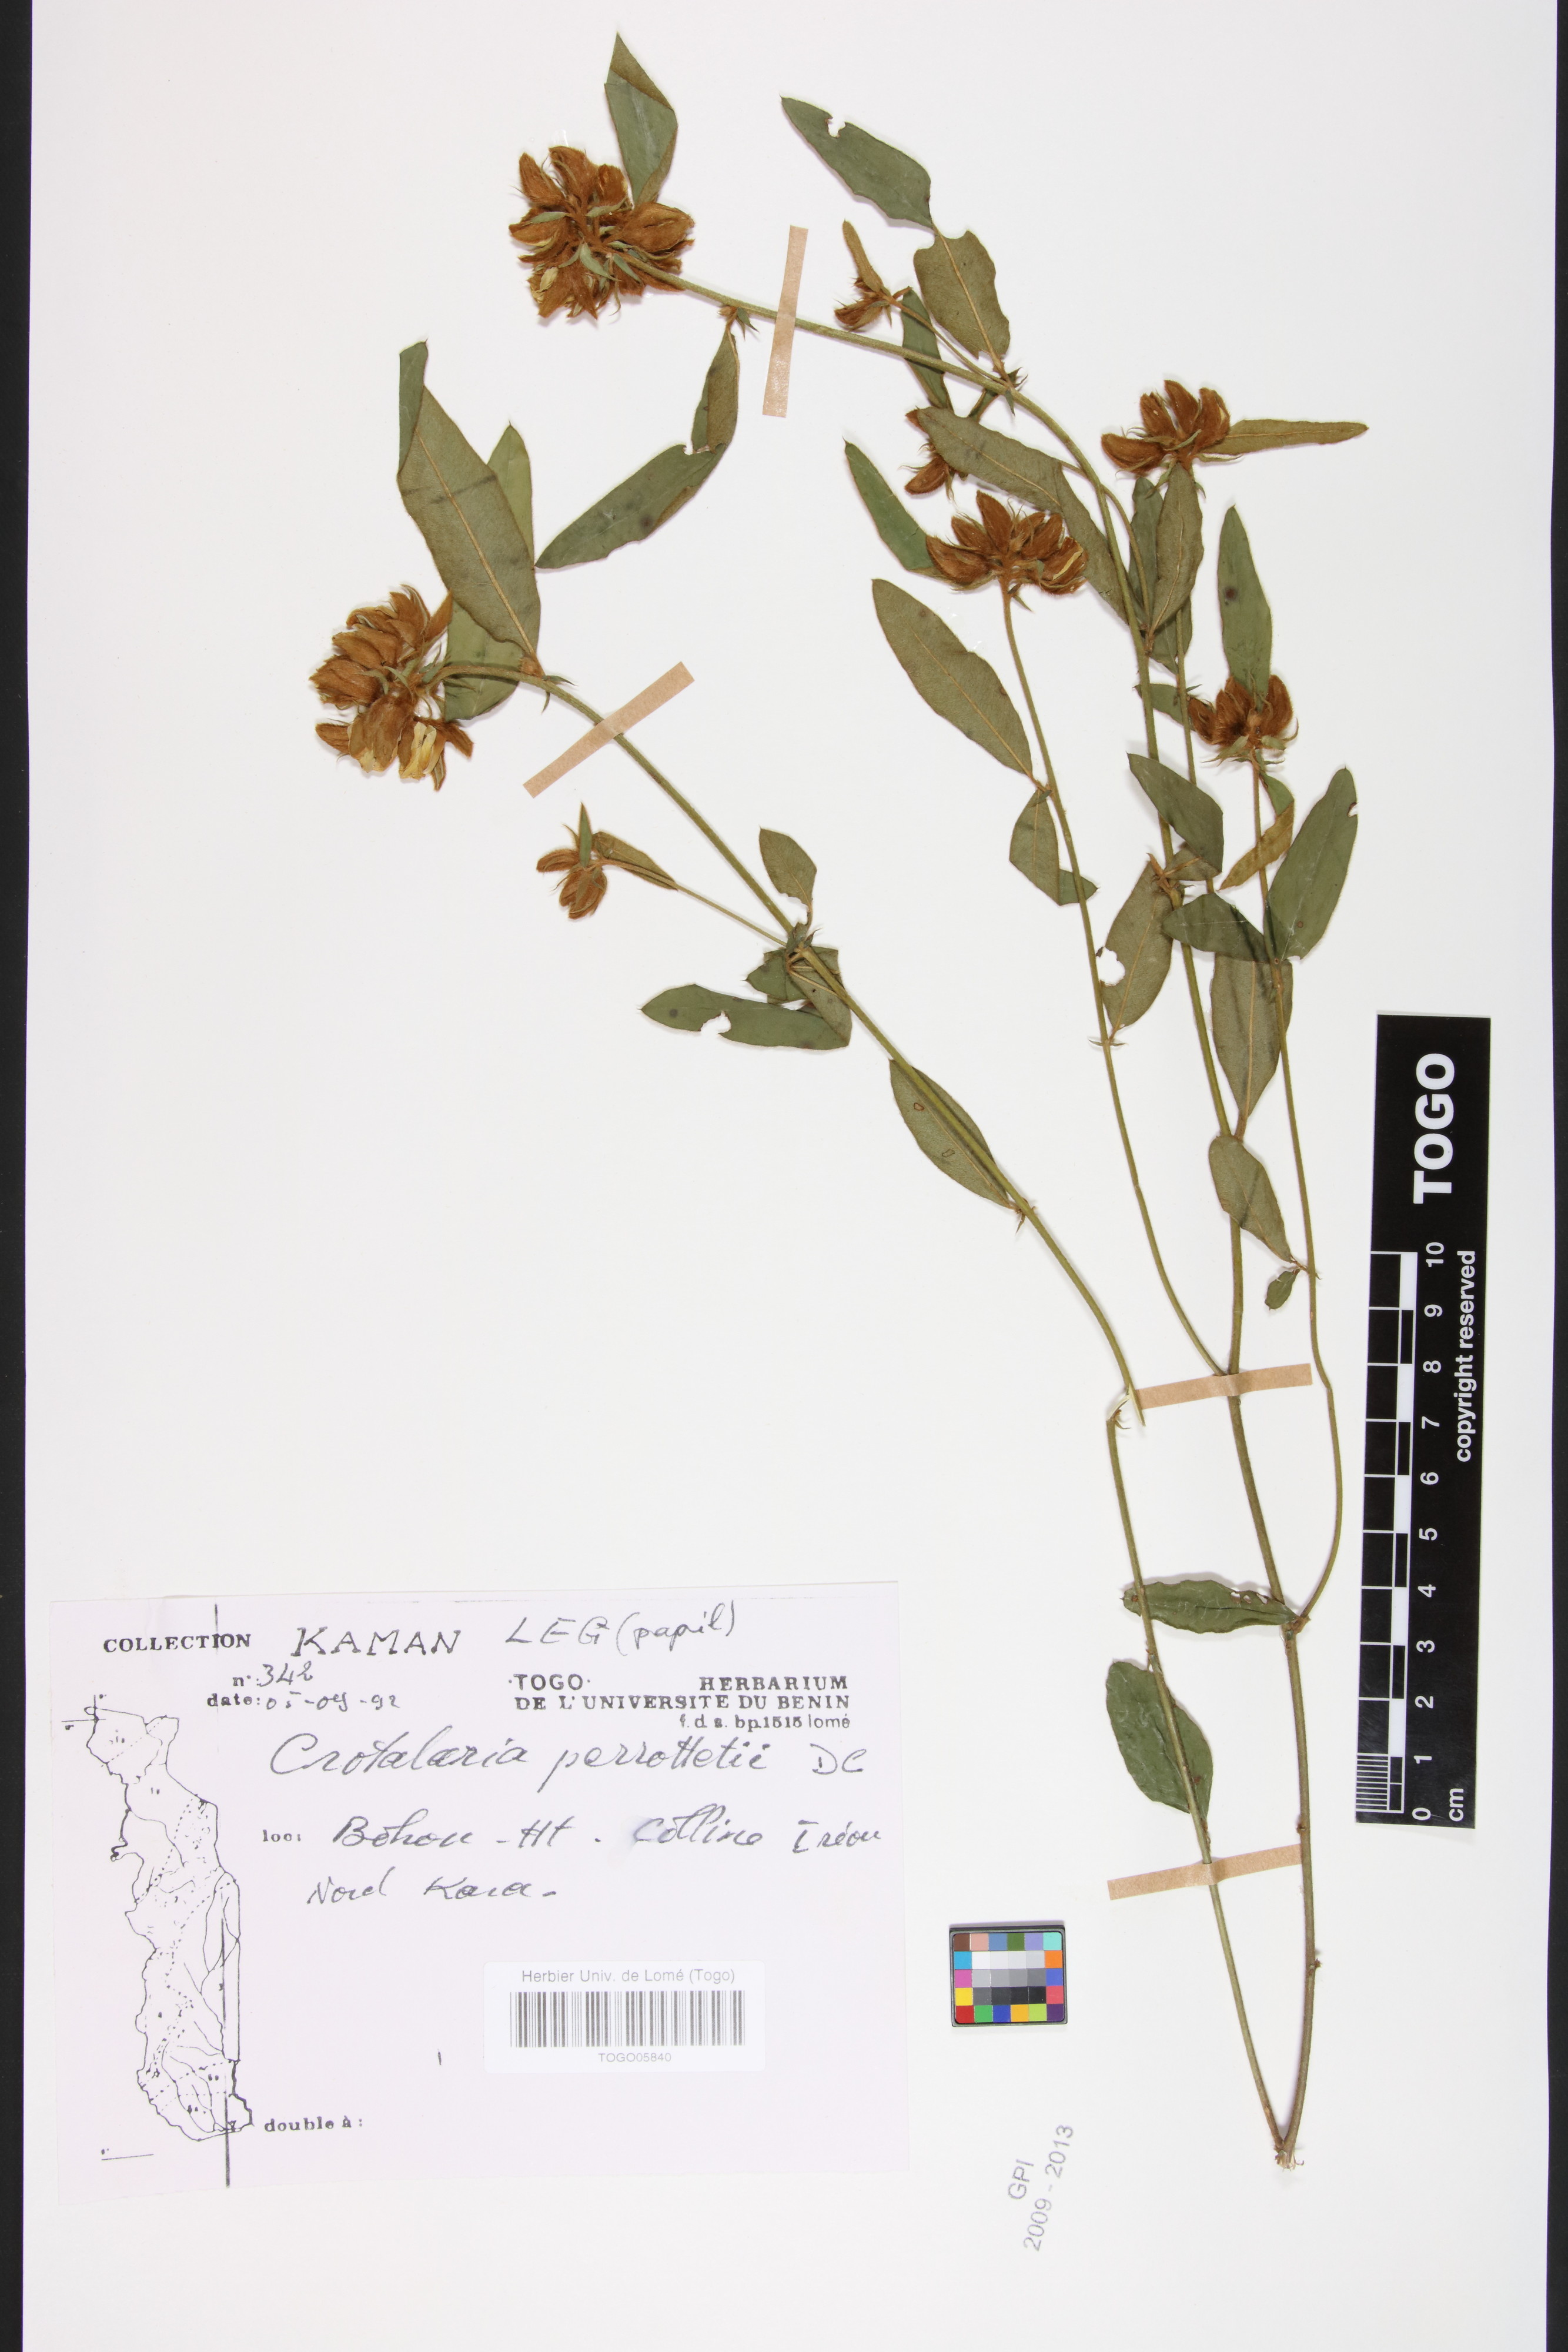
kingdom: Plantae
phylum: Tracheophyta
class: Magnoliopsida
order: Fabales
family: Fabaceae
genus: Crotalaria
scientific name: Crotalaria perrottetii
